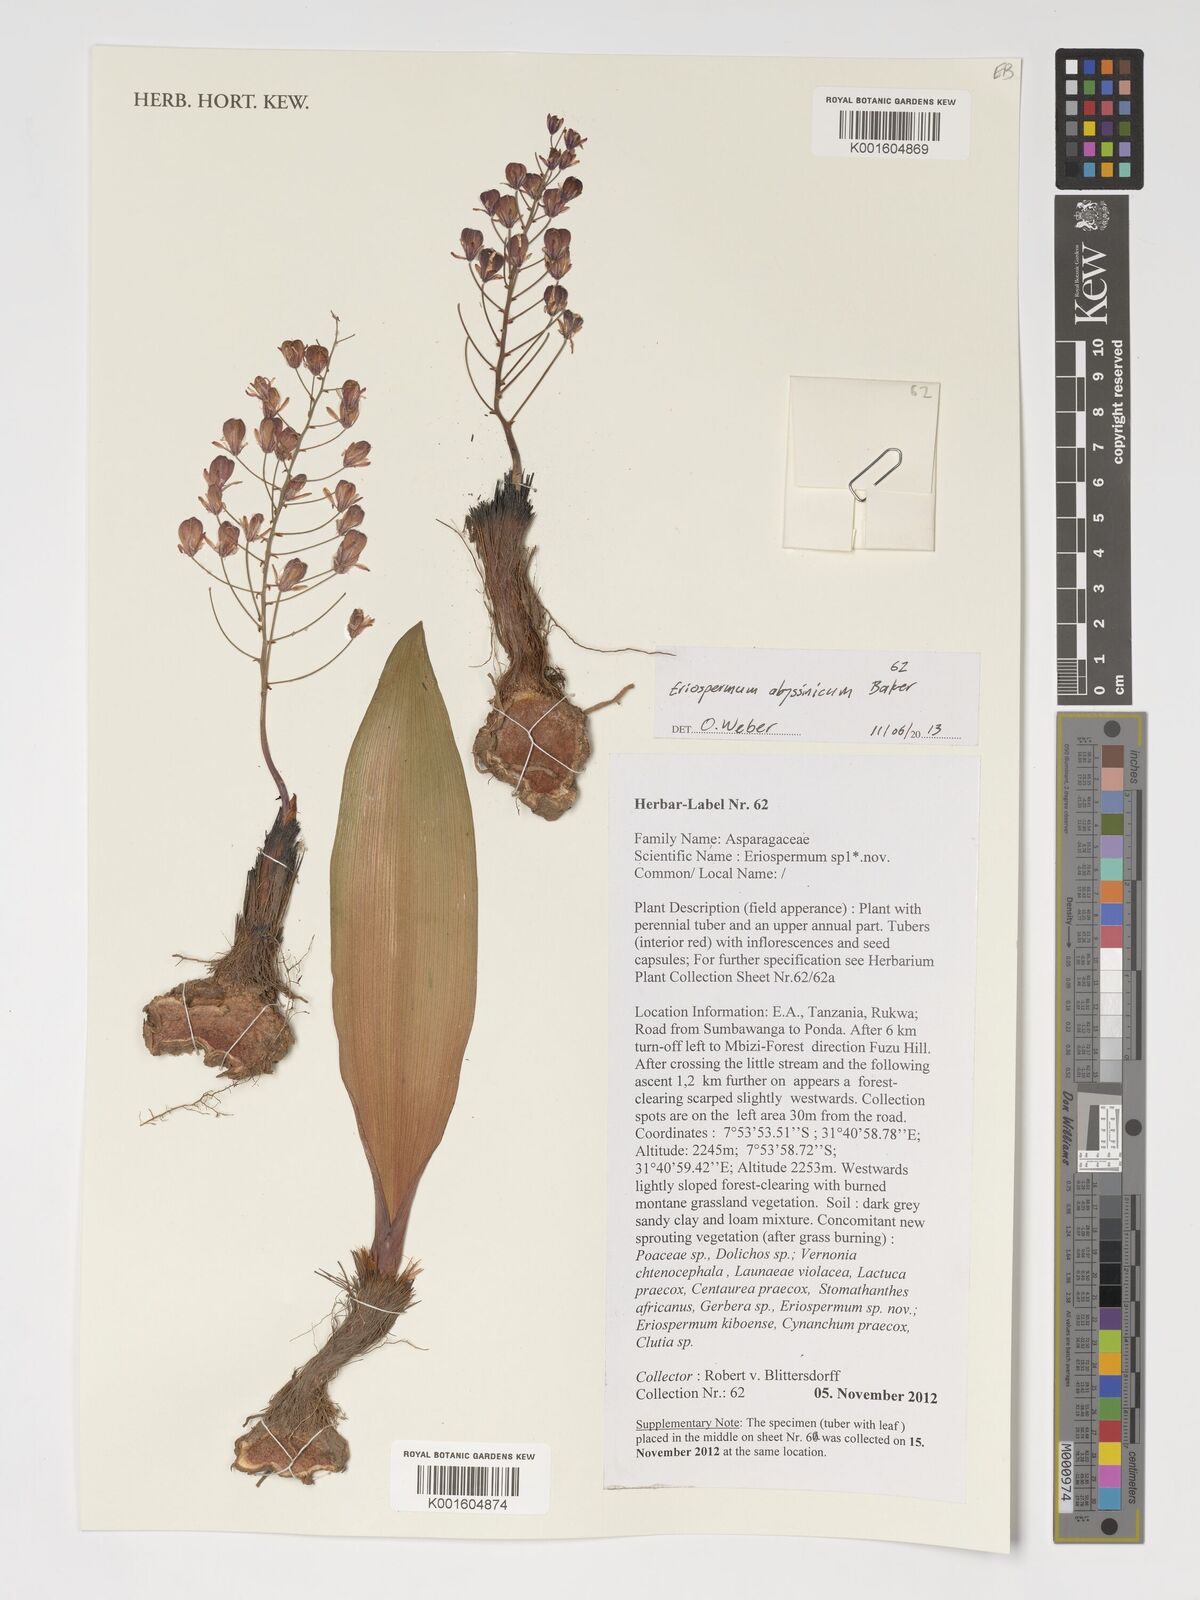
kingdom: Plantae
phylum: Tracheophyta
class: Liliopsida
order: Asparagales
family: Asparagaceae
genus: Eriospermum
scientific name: Eriospermum abyssinicum
